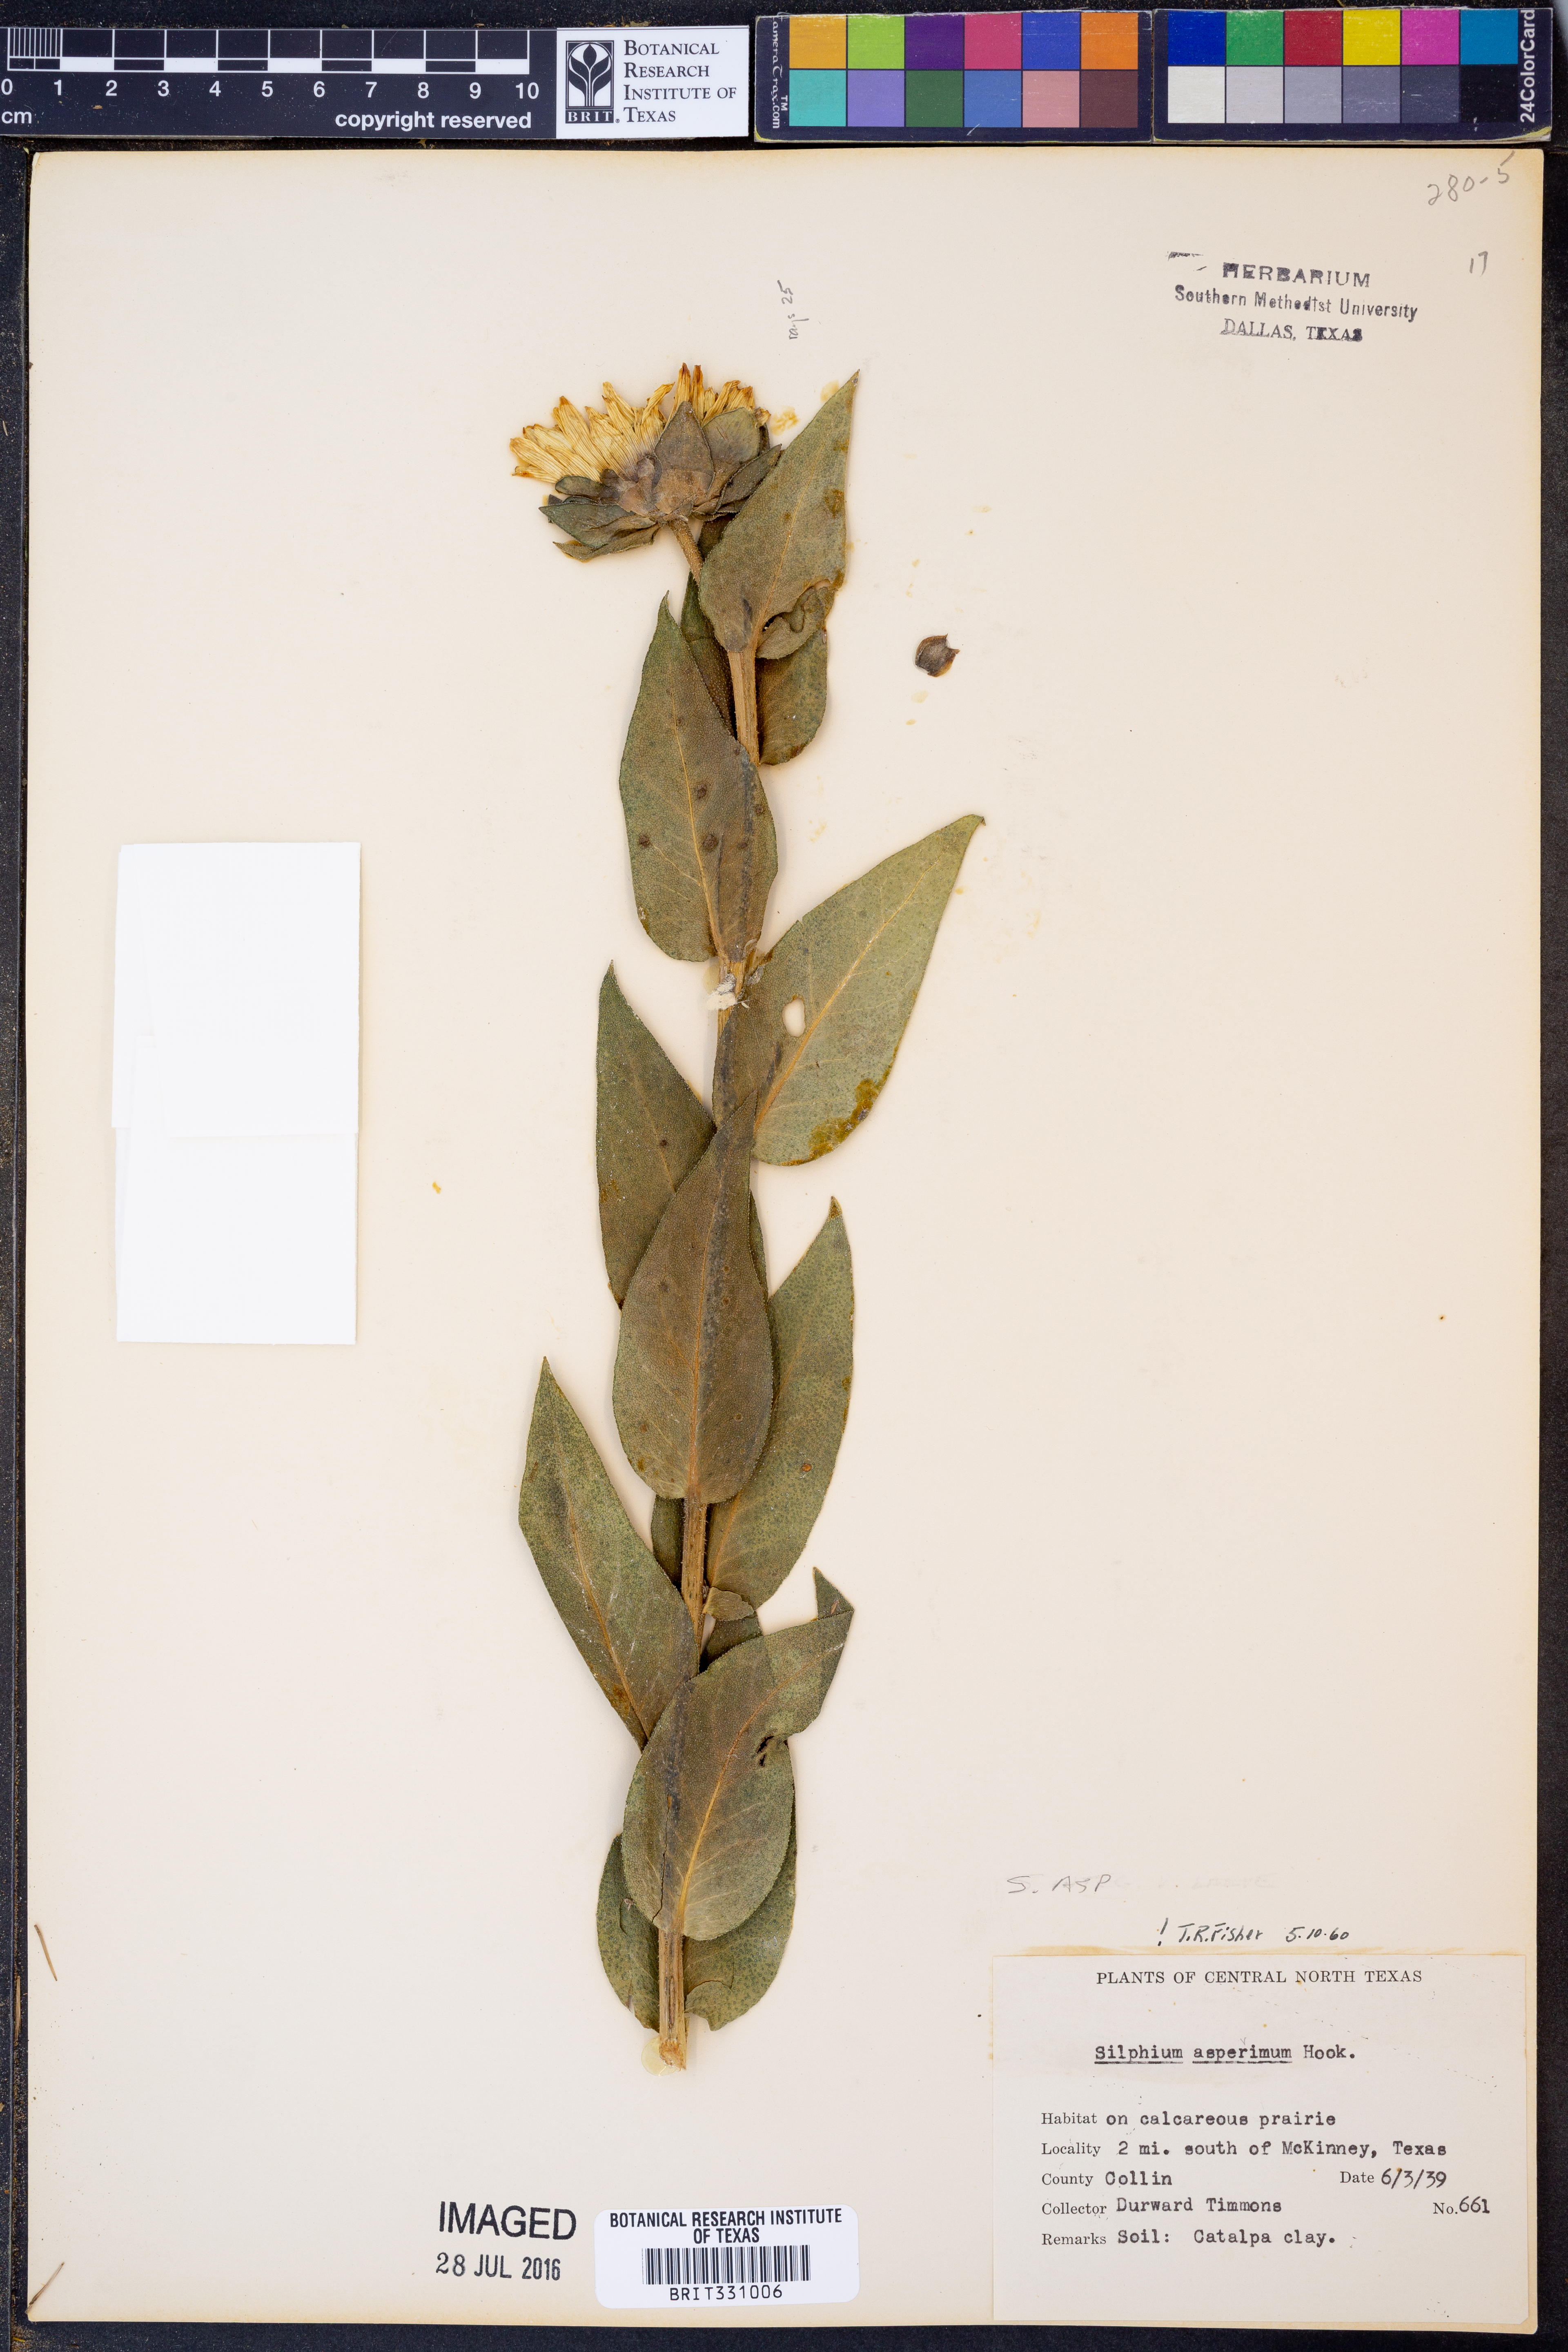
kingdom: Plantae
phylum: Tracheophyta
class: Magnoliopsida
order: Asterales
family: Asteraceae
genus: Silphium
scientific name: Silphium asperrimum
